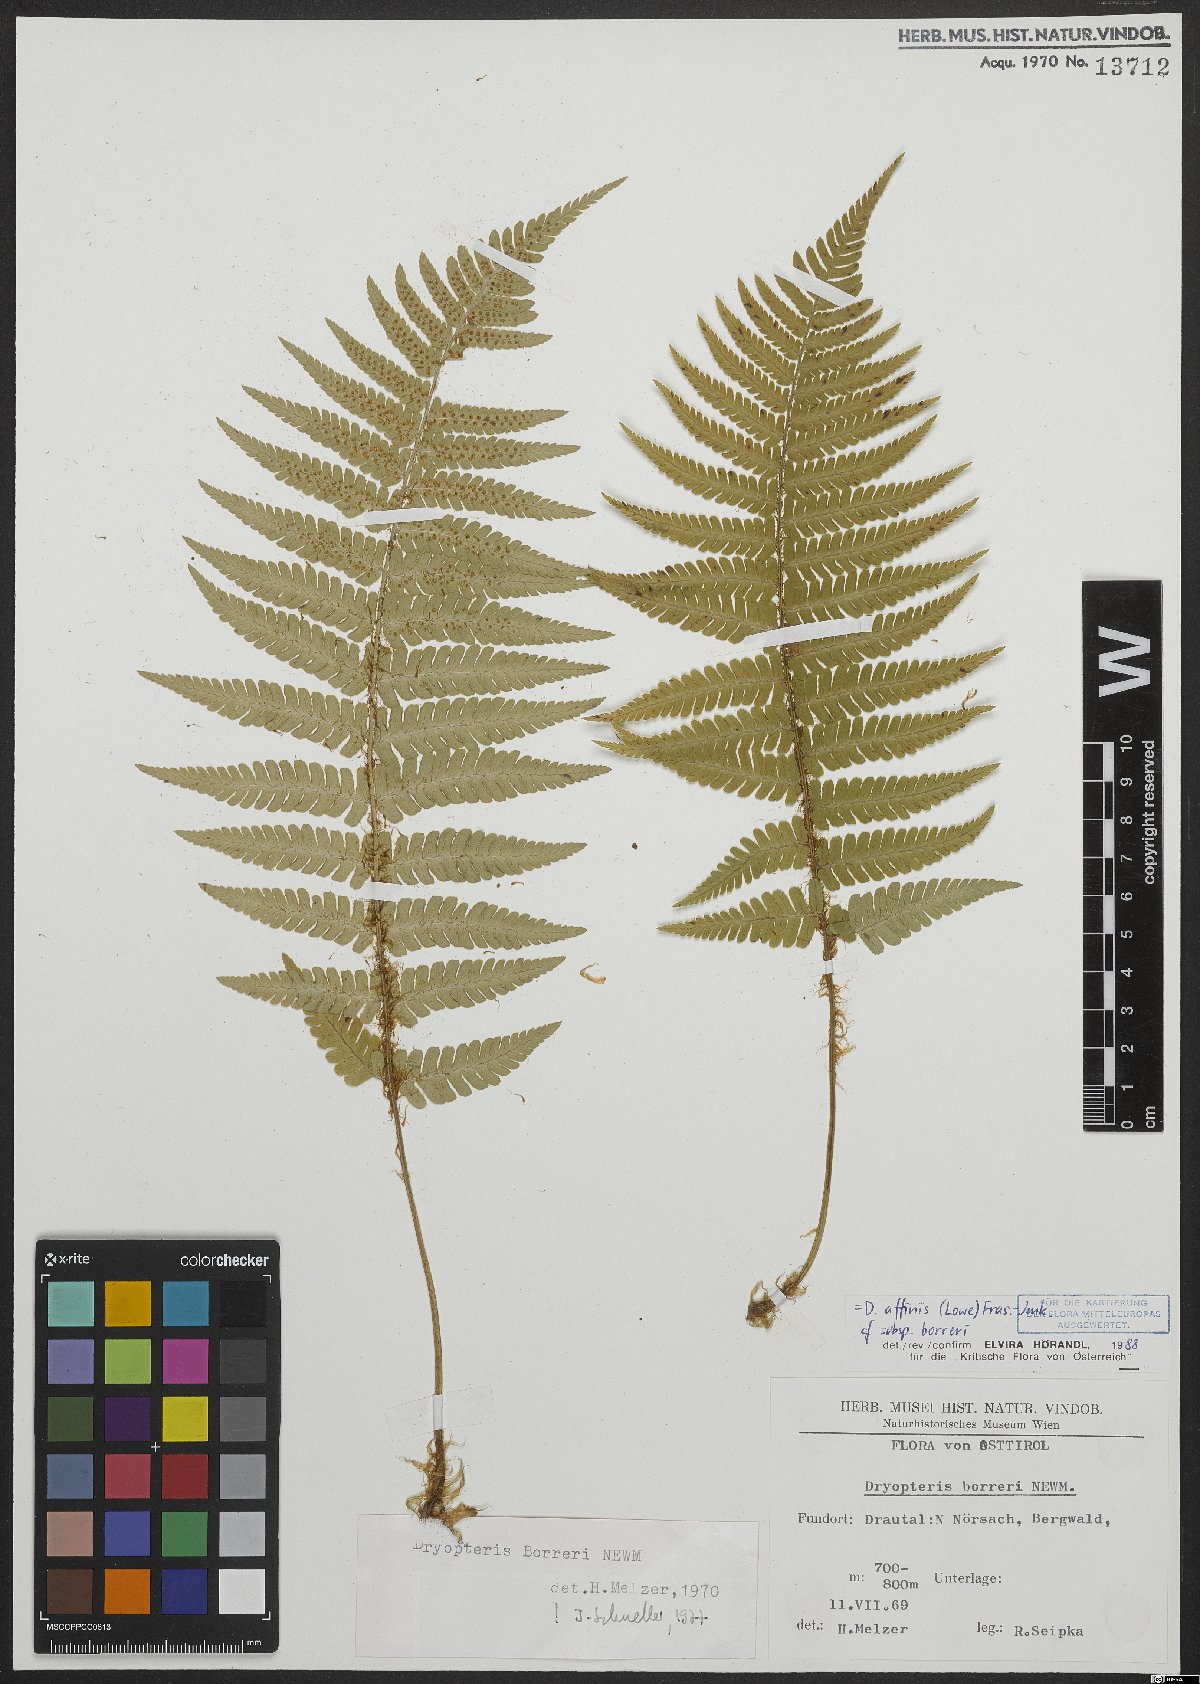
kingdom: Plantae
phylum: Tracheophyta
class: Polypodiopsida
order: Polypodiales
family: Dryopteridaceae
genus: Dryopteris
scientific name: Dryopteris borreri
